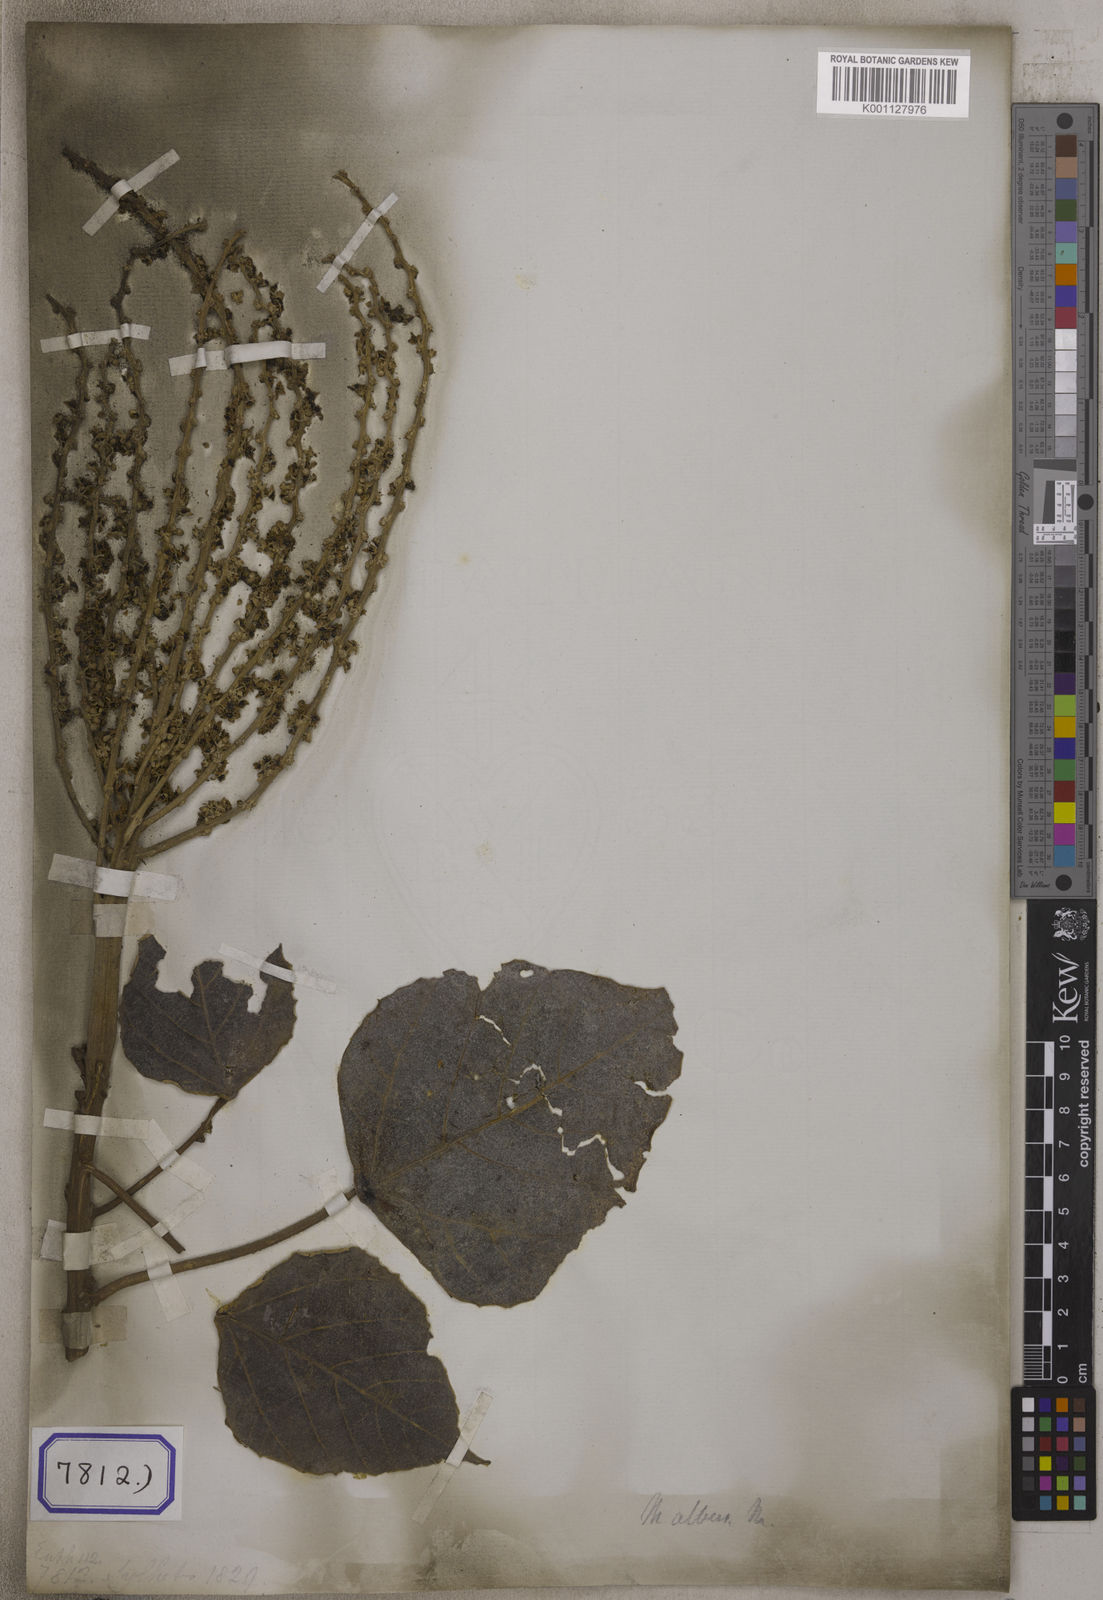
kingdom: Plantae
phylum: Tracheophyta
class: Magnoliopsida
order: Malpighiales
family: Euphorbiaceae
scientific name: Euphorbiaceae
